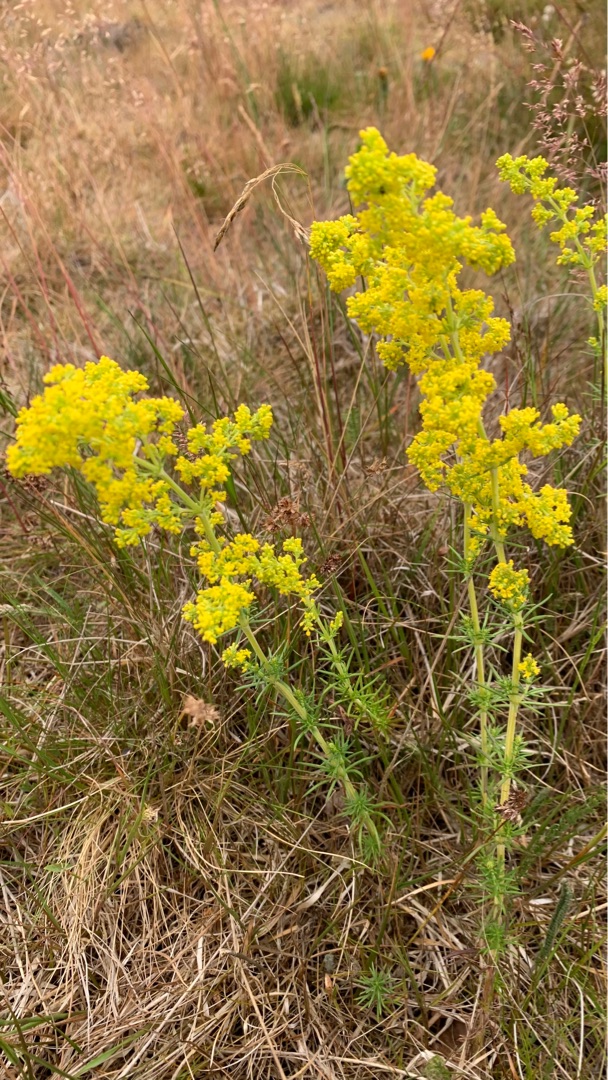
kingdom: Plantae
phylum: Tracheophyta
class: Magnoliopsida
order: Gentianales
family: Rubiaceae
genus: Galium
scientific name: Galium verum
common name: Gul snerre
